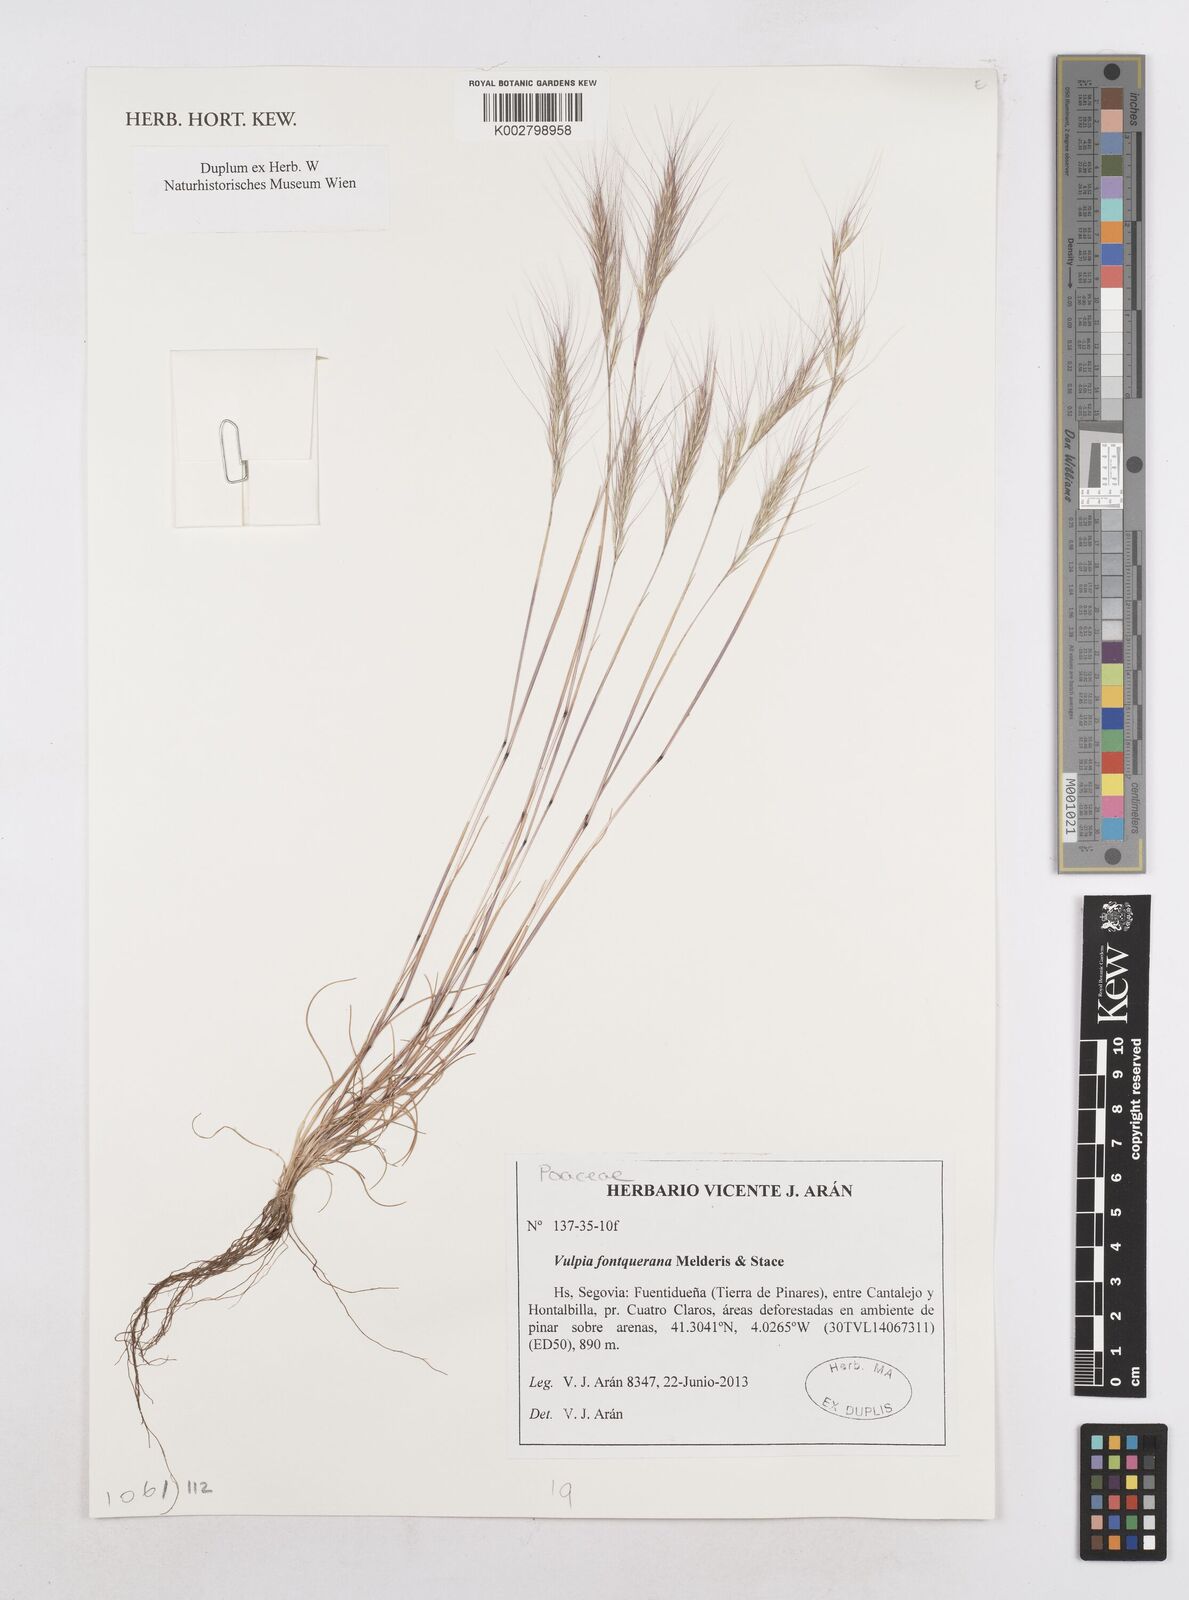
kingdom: Plantae
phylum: Tracheophyta
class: Liliopsida
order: Poales
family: Poaceae
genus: Festuca
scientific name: Festuca Vulpia fontqueriana
